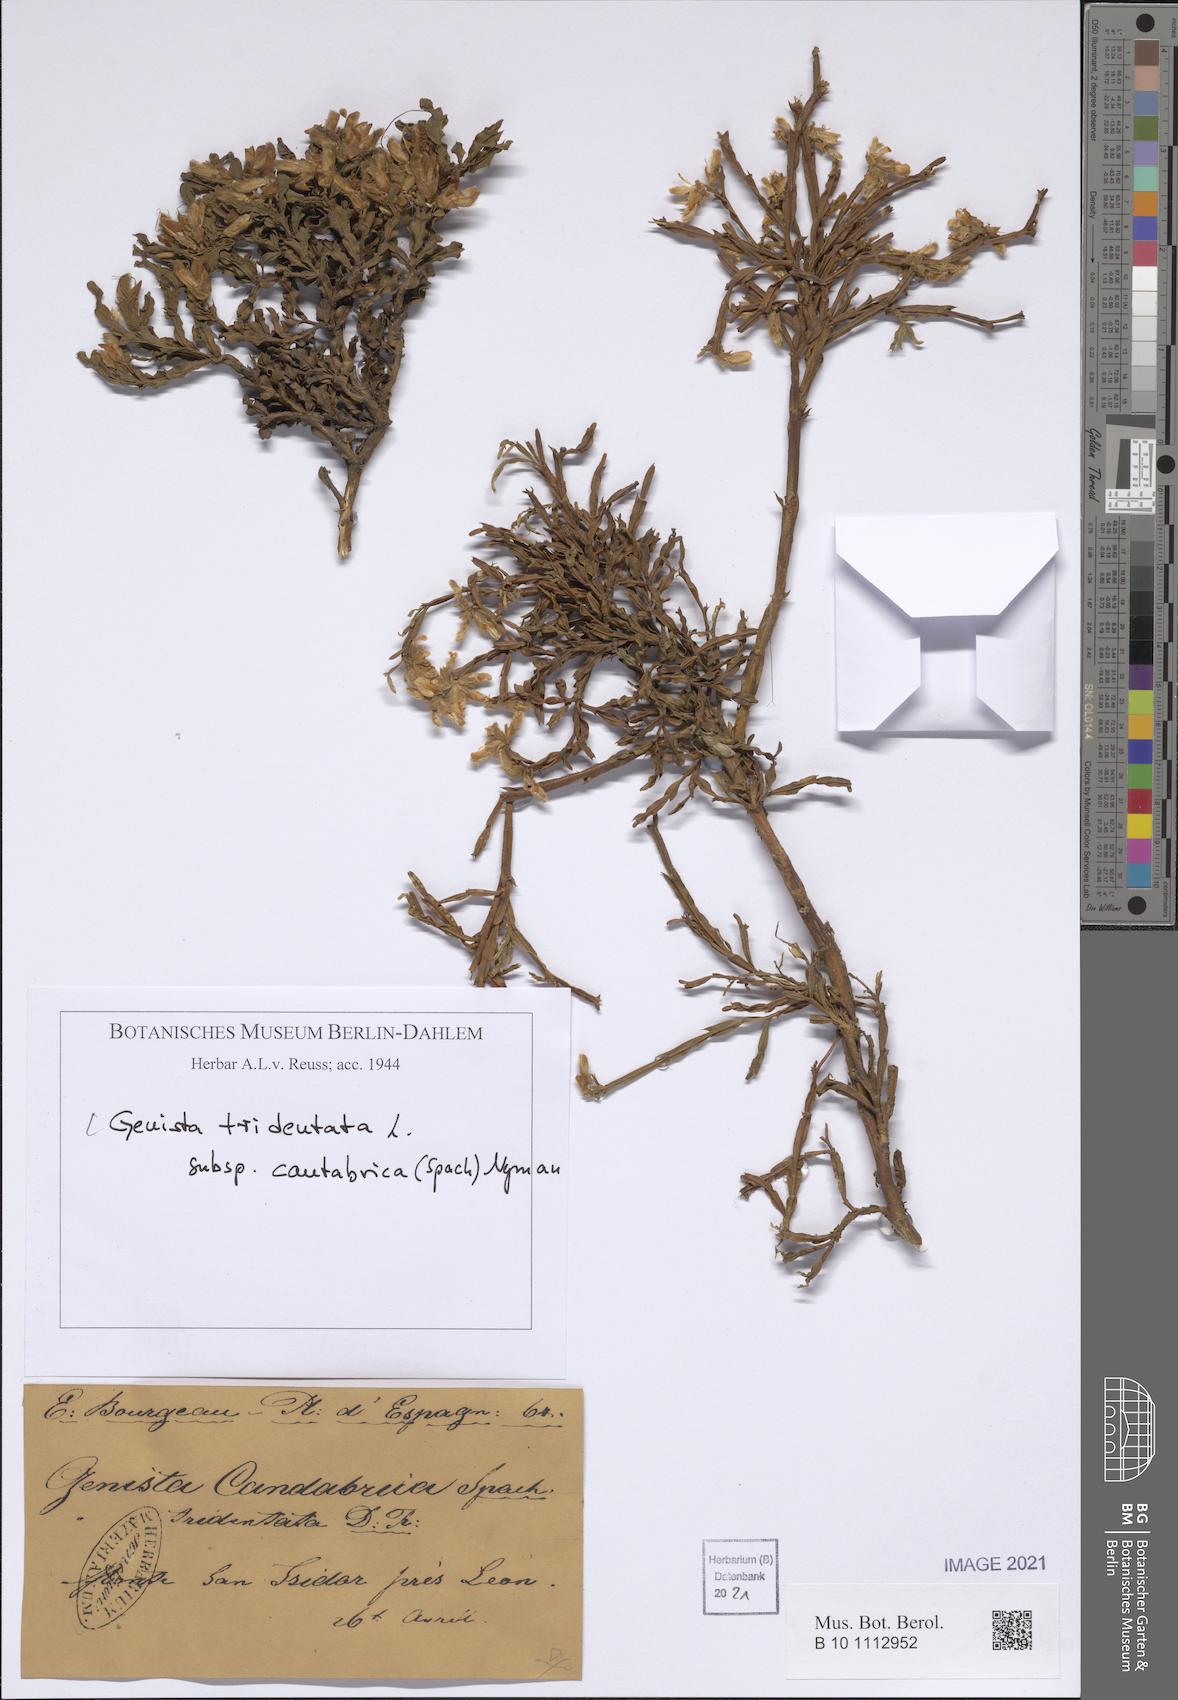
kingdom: Plantae
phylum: Tracheophyta
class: Magnoliopsida
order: Fabales
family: Fabaceae
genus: Genista
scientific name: Genista tridentata
